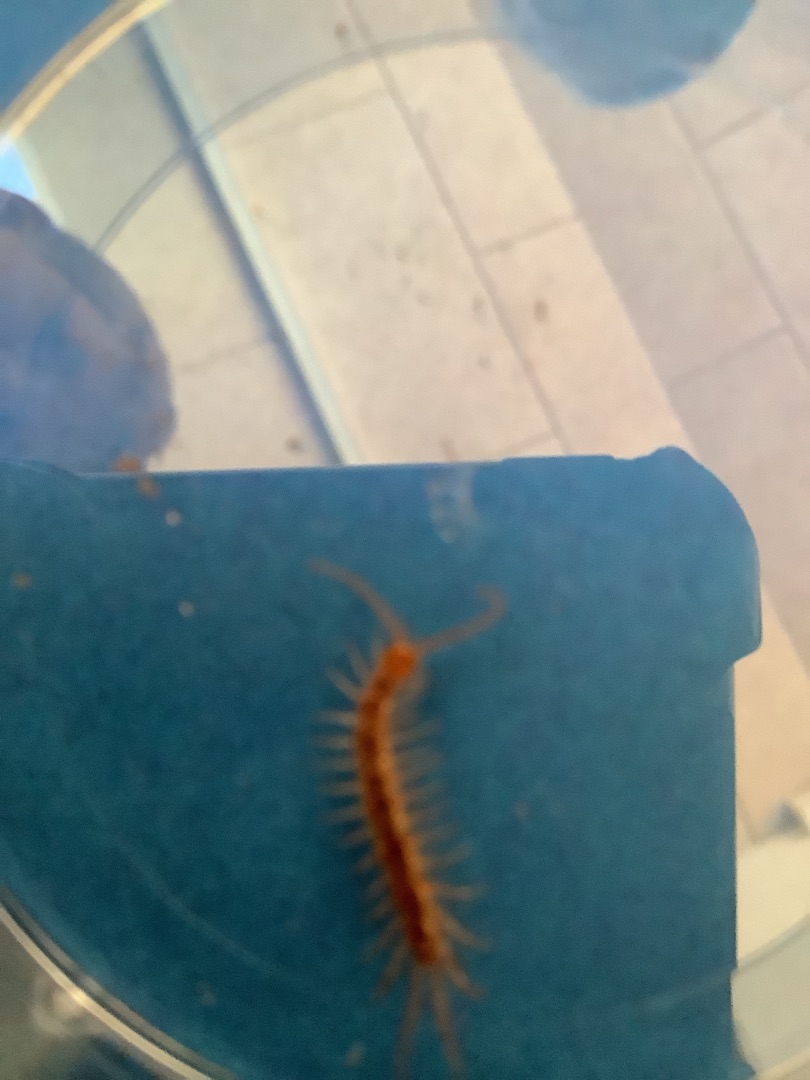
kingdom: Animalia
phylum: Arthropoda
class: Chilopoda
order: Lithobiomorpha
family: Lithobiidae
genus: Lithobius
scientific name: Lithobius
